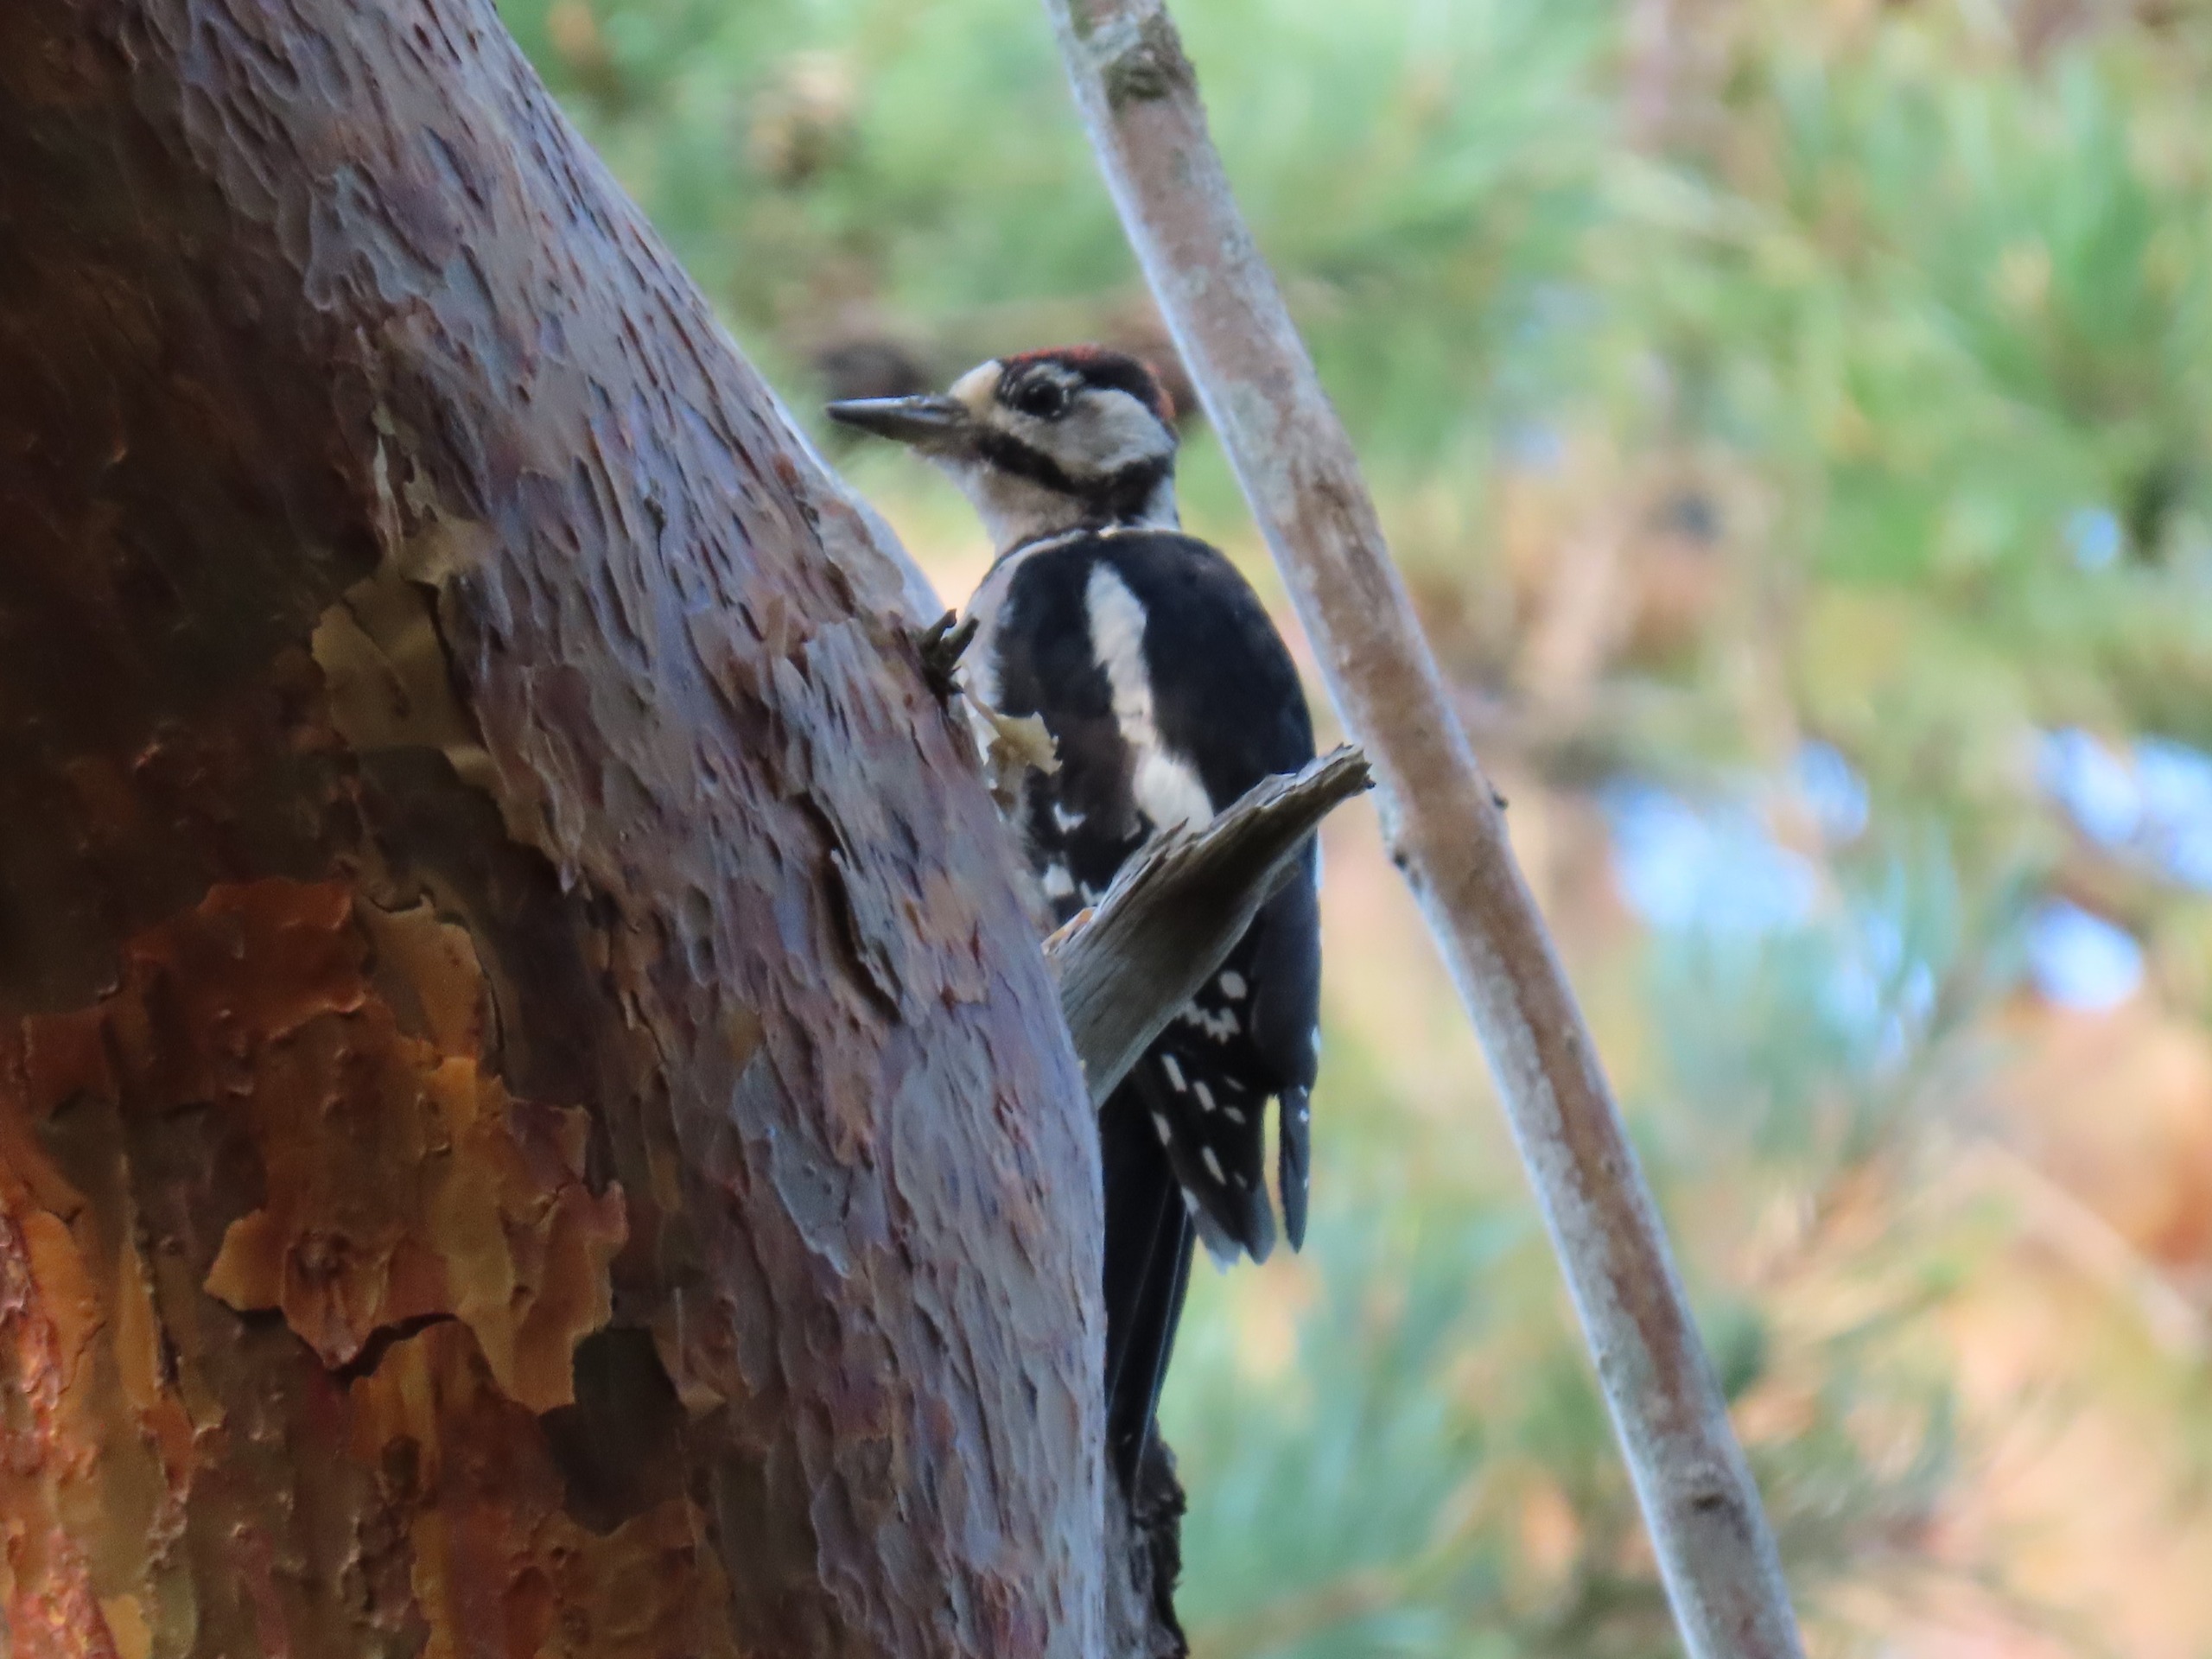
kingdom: Animalia
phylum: Chordata
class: Aves
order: Piciformes
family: Picidae
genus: Dendrocopos
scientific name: Dendrocopos major
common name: Stor flagspætte
